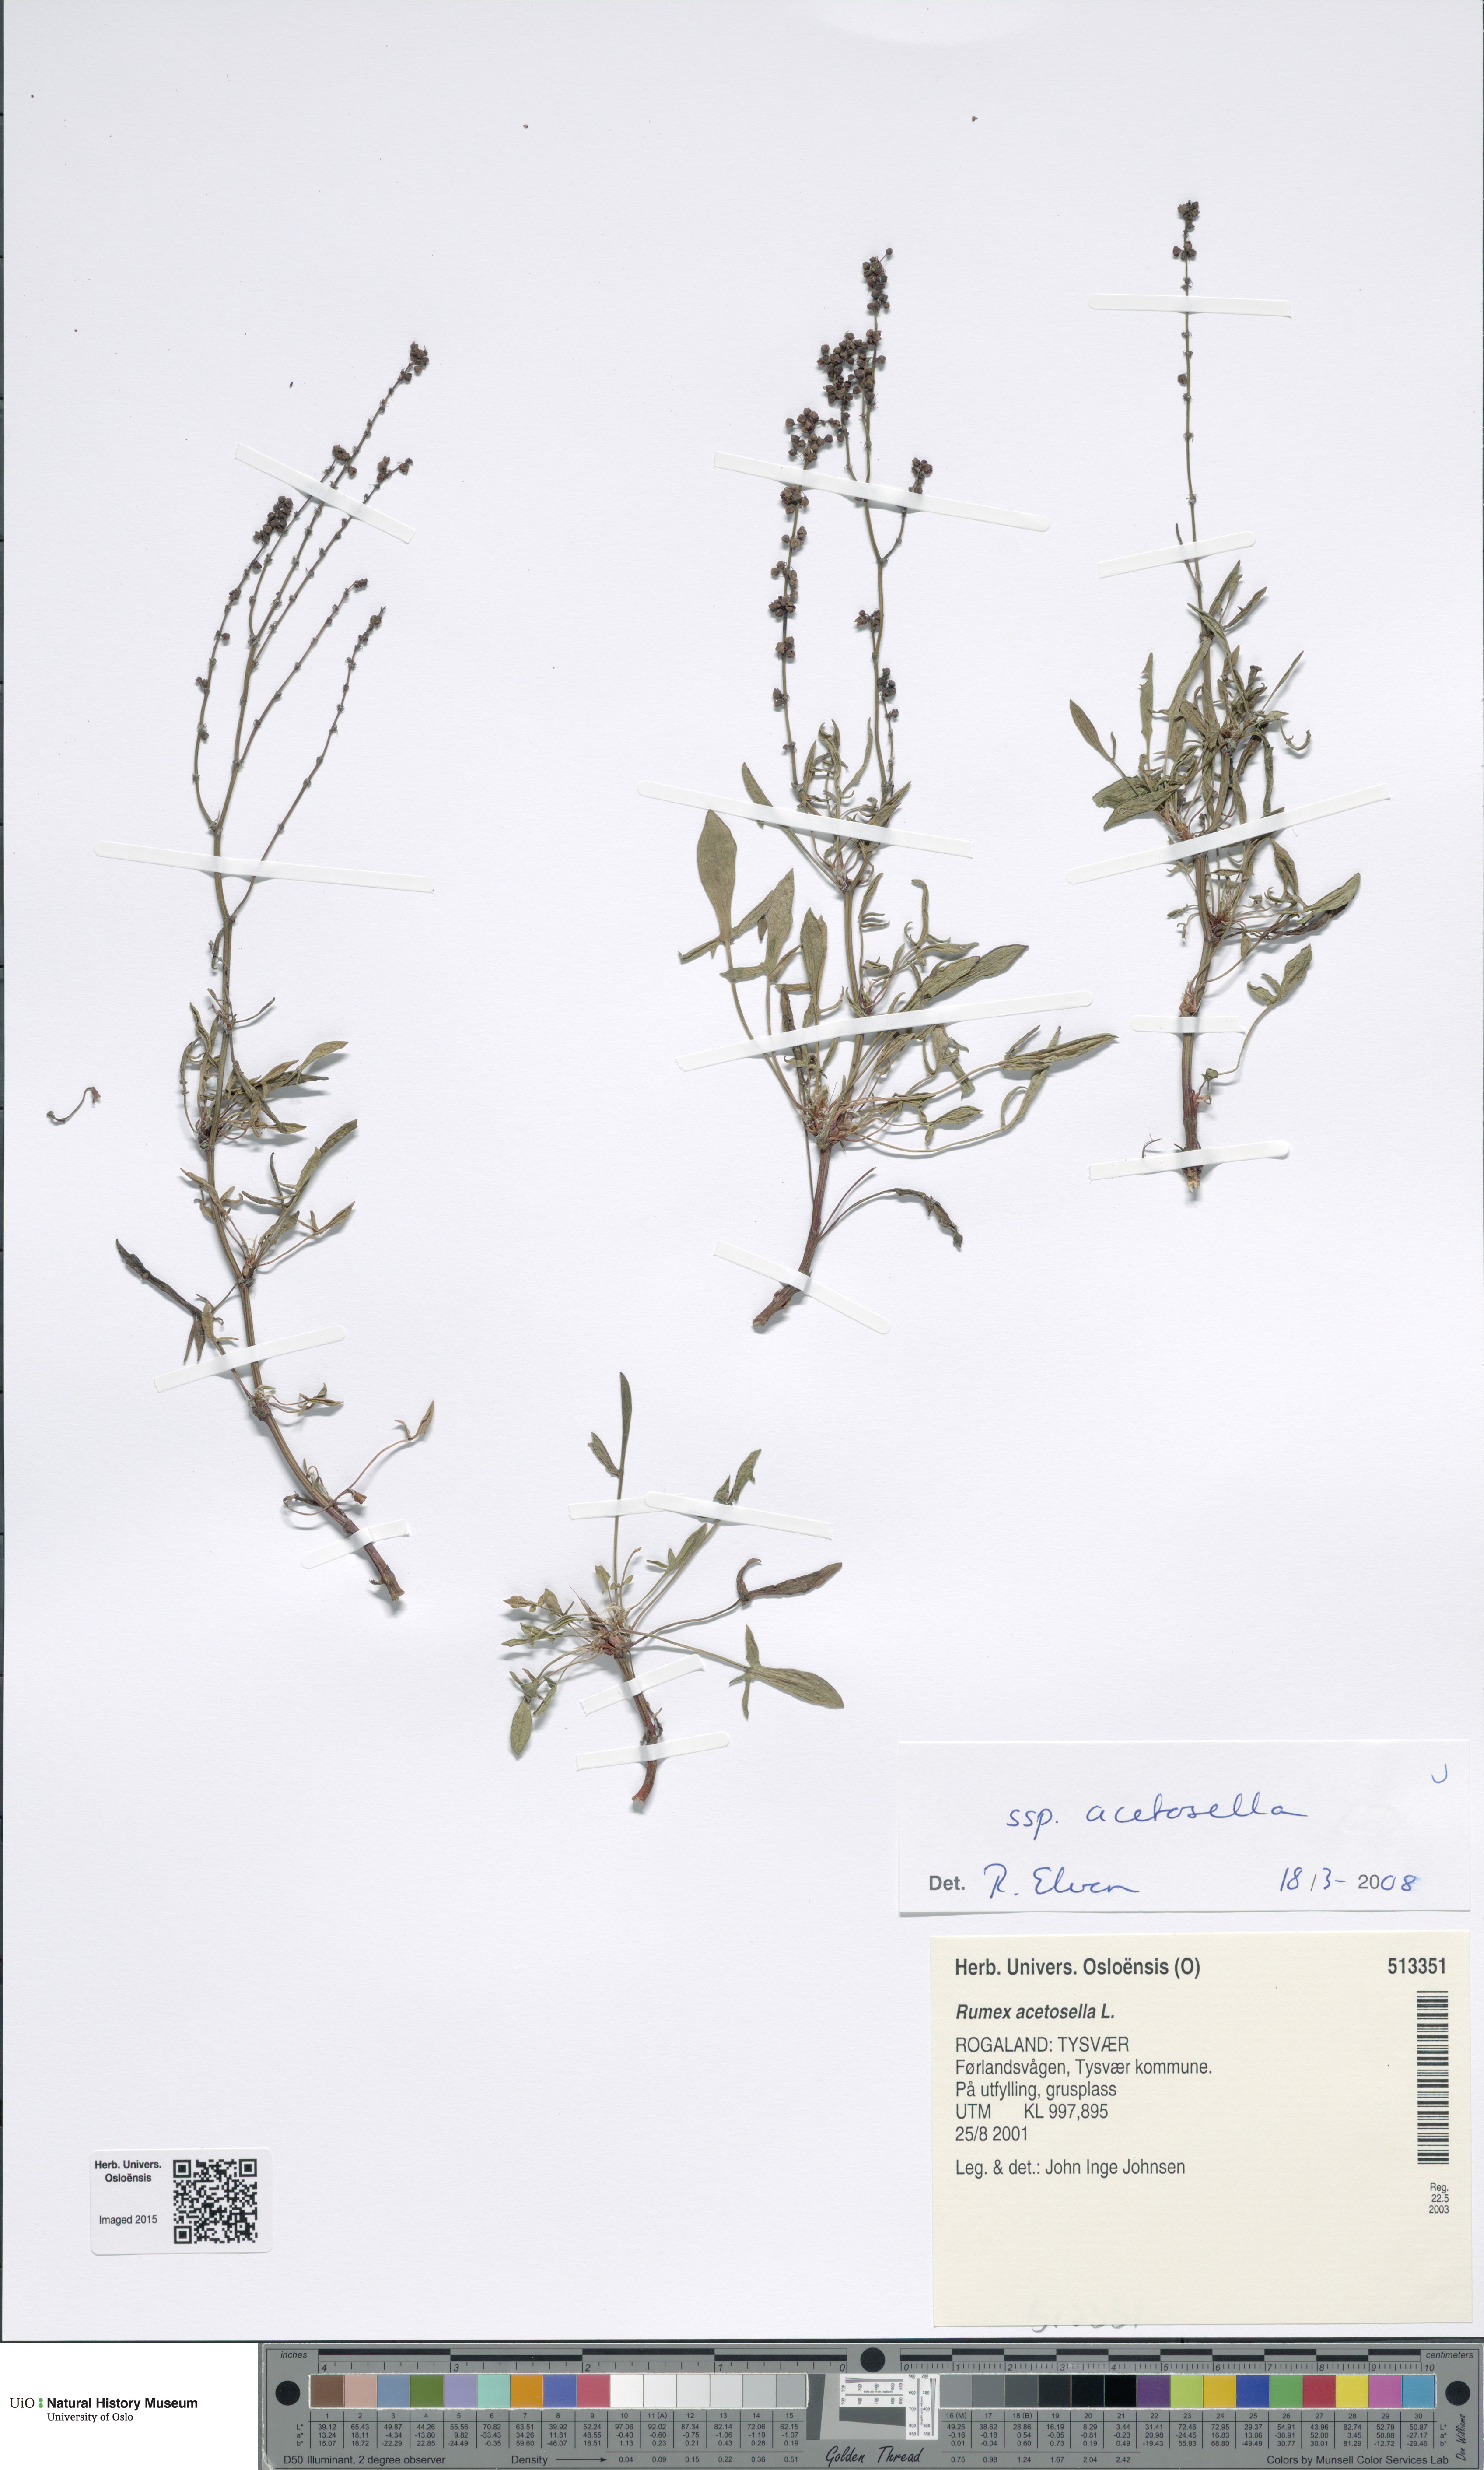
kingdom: Plantae
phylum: Tracheophyta
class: Magnoliopsida
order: Caryophyllales
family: Polygonaceae
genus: Rumex
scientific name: Rumex acetosella
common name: Common sheep sorrel
